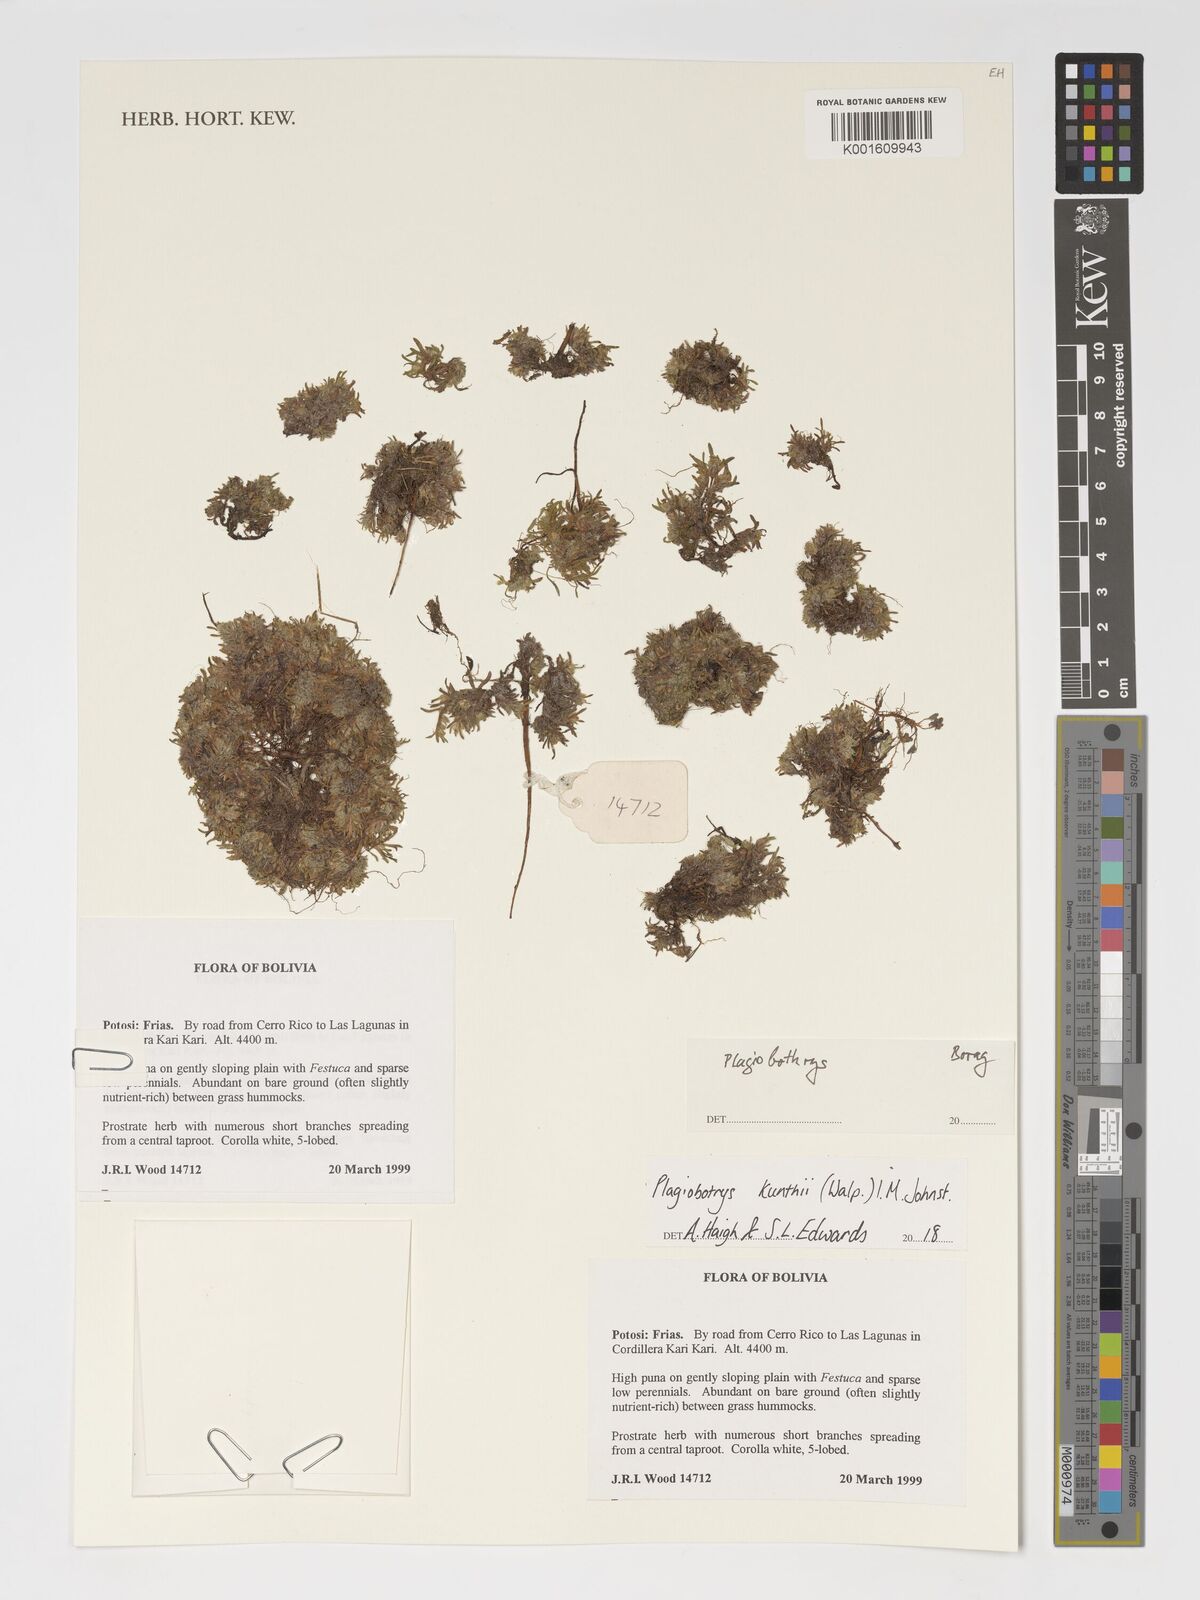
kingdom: Plantae
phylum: Tracheophyta
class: Magnoliopsida
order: Boraginales
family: Boraginaceae
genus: Plagiobothrys
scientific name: Plagiobothrys linifolius
